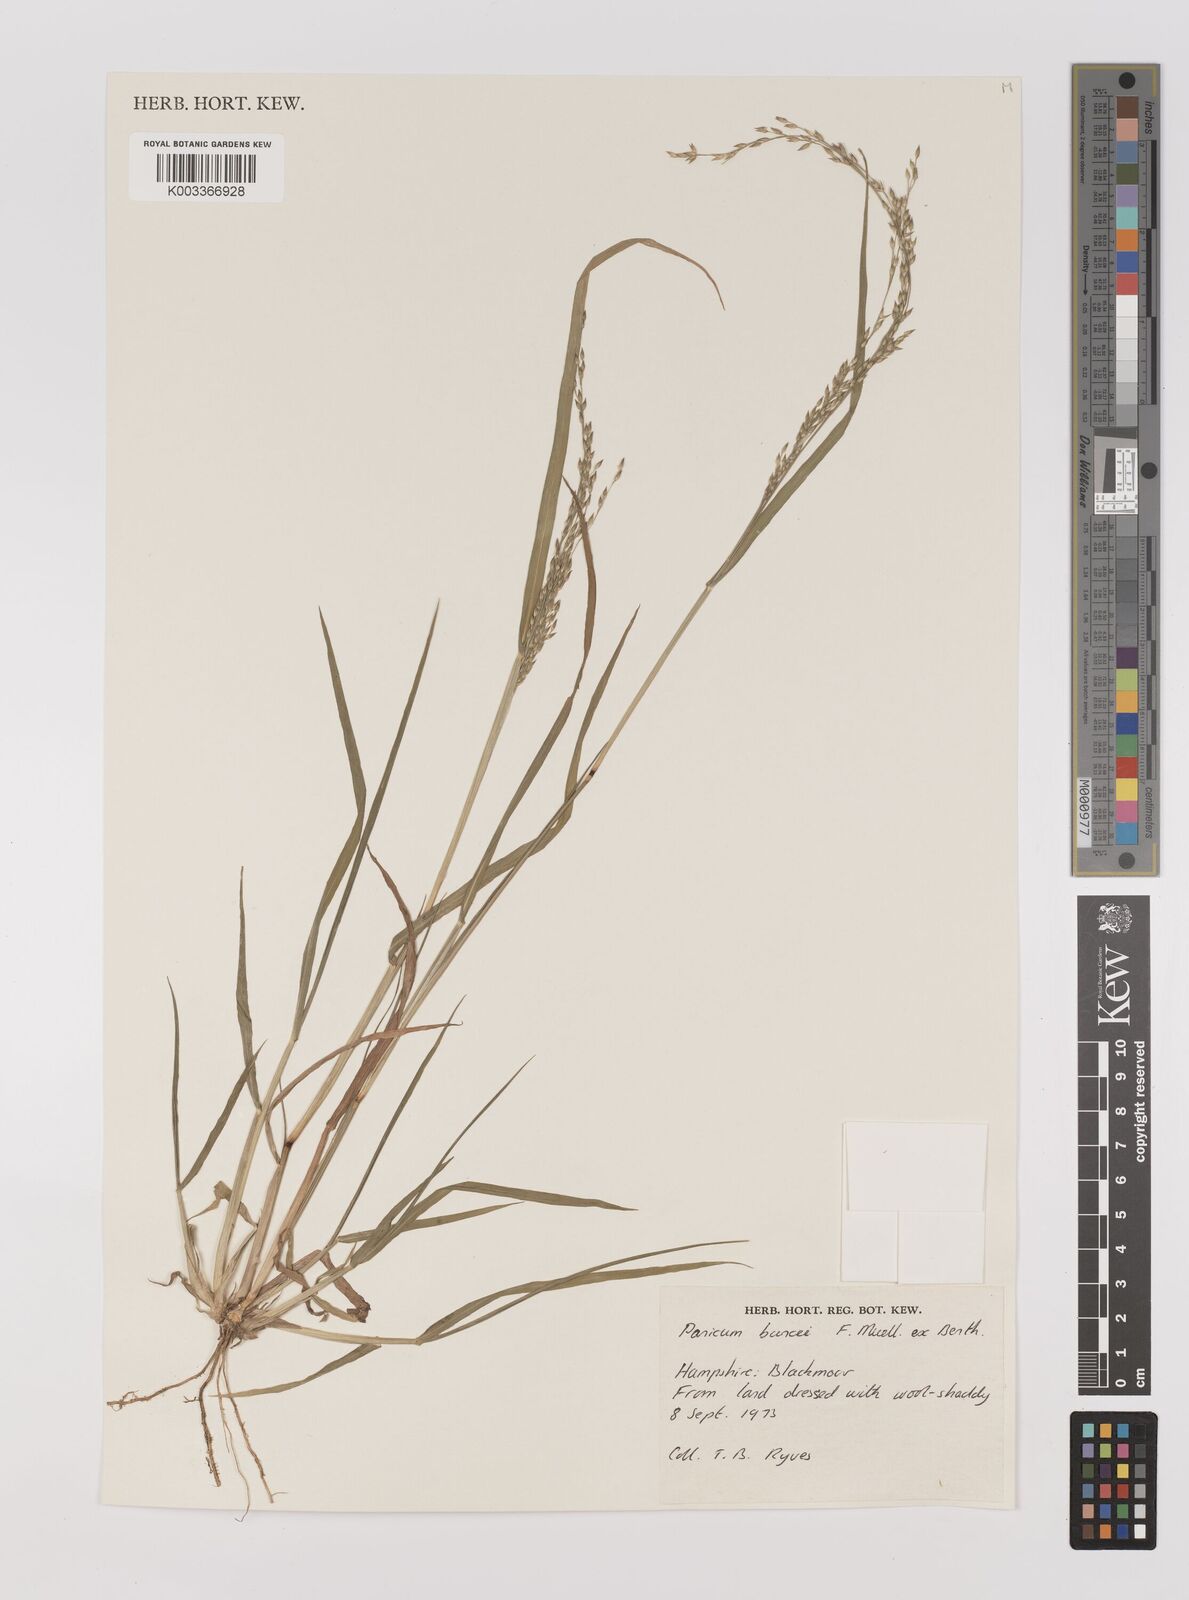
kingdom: Plantae
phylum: Tracheophyta
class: Liliopsida
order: Poales
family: Poaceae
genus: Panicum
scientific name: Panicum buncei
